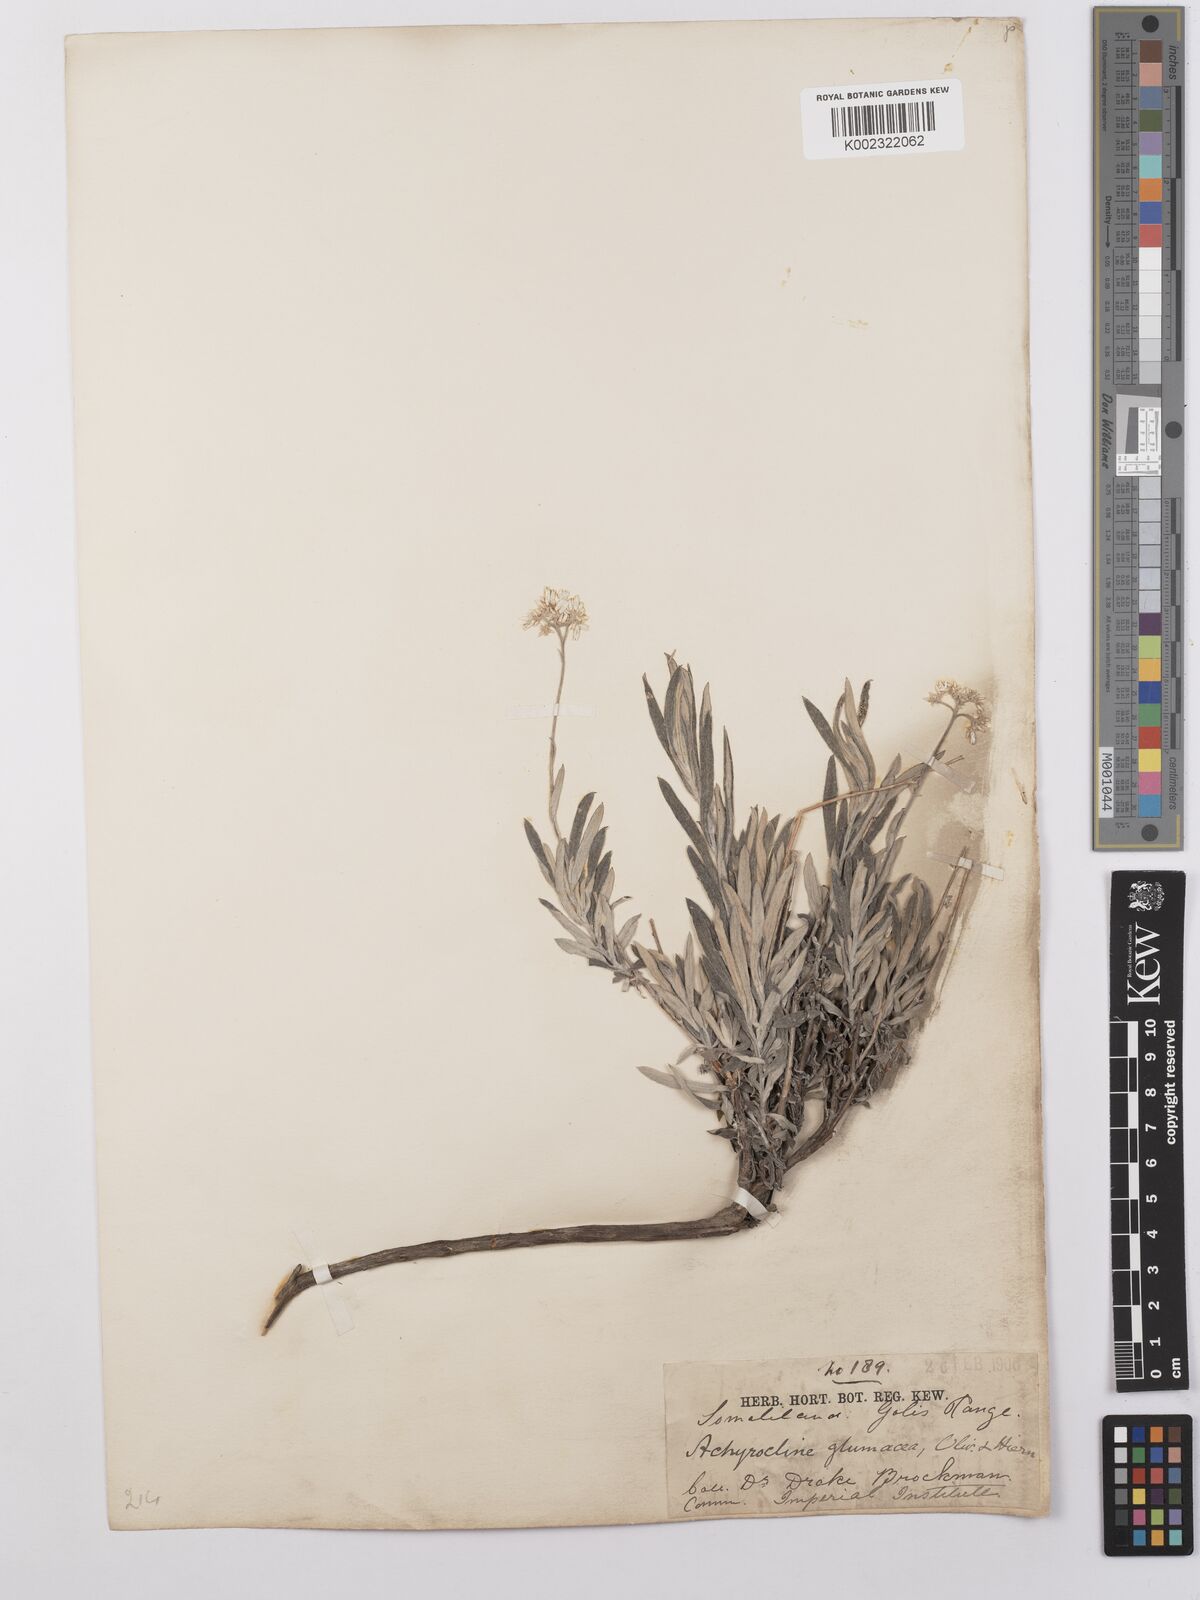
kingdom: Plantae
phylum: Tracheophyta
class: Magnoliopsida
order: Asterales
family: Asteraceae
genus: Helichrysum
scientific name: Helichrysum glumaceum
